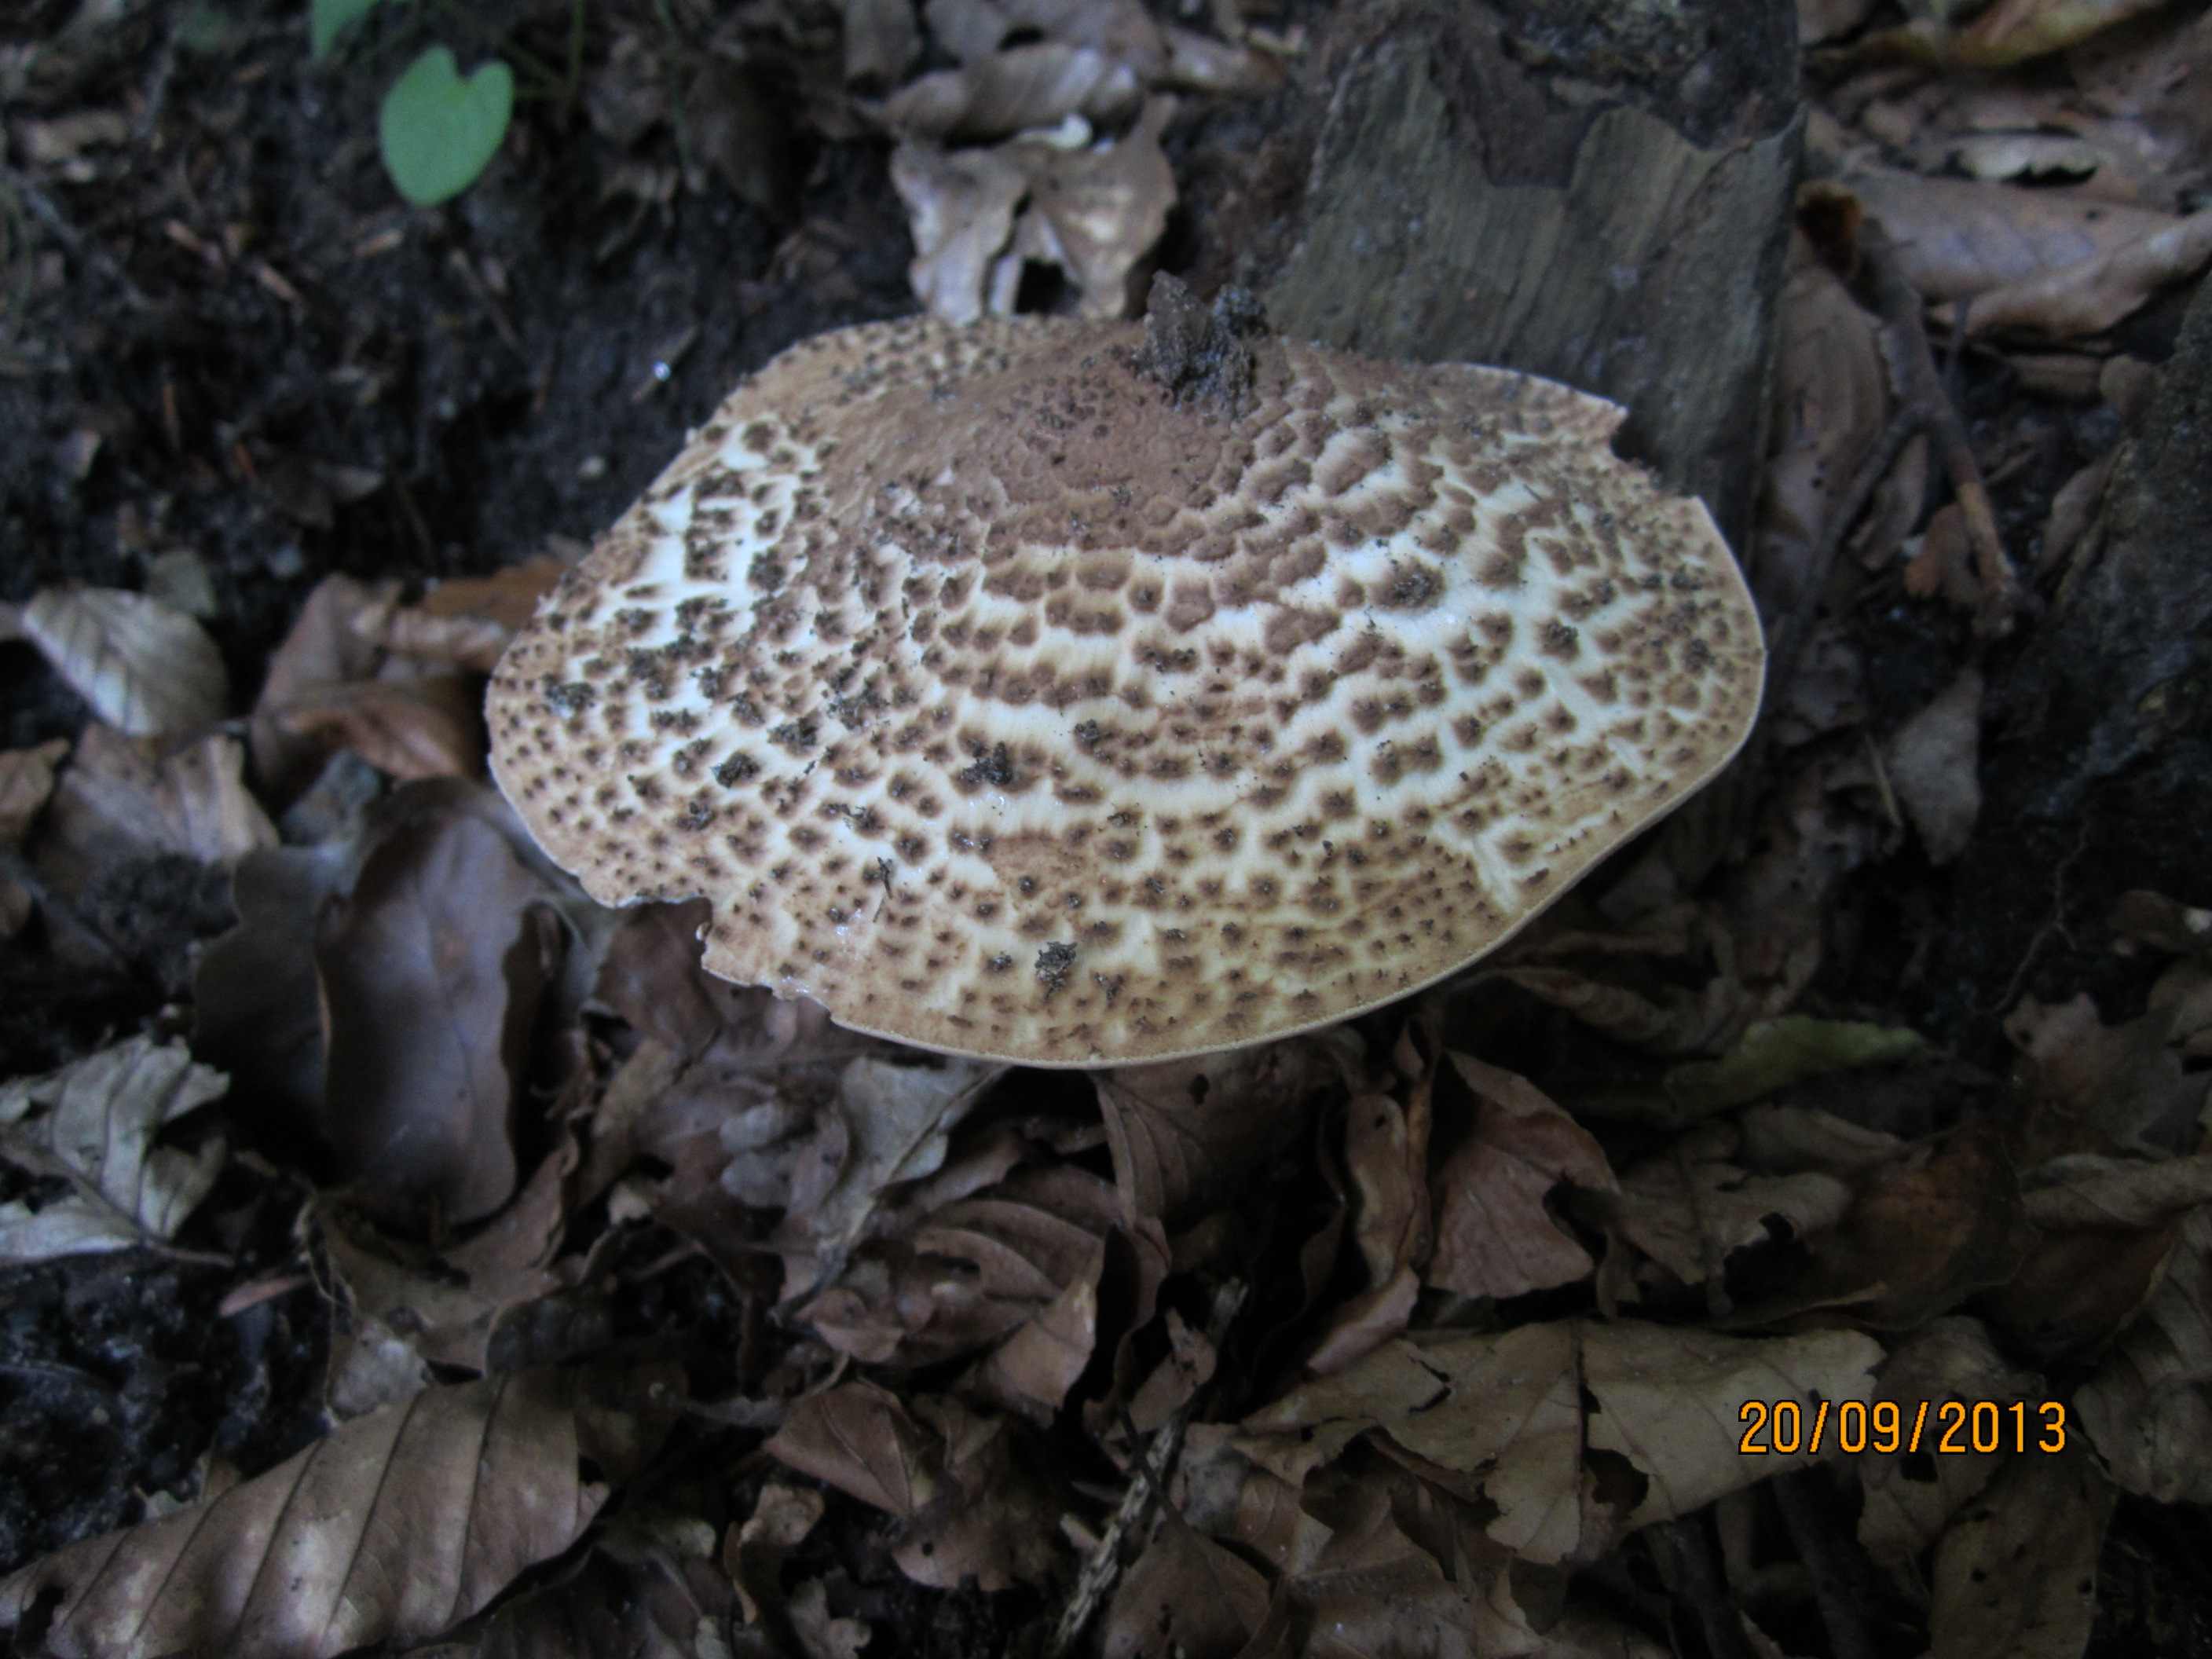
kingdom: Fungi
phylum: Basidiomycota
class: Agaricomycetes
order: Agaricales
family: Agaricaceae
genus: Echinoderma
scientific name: Echinoderma asperum
